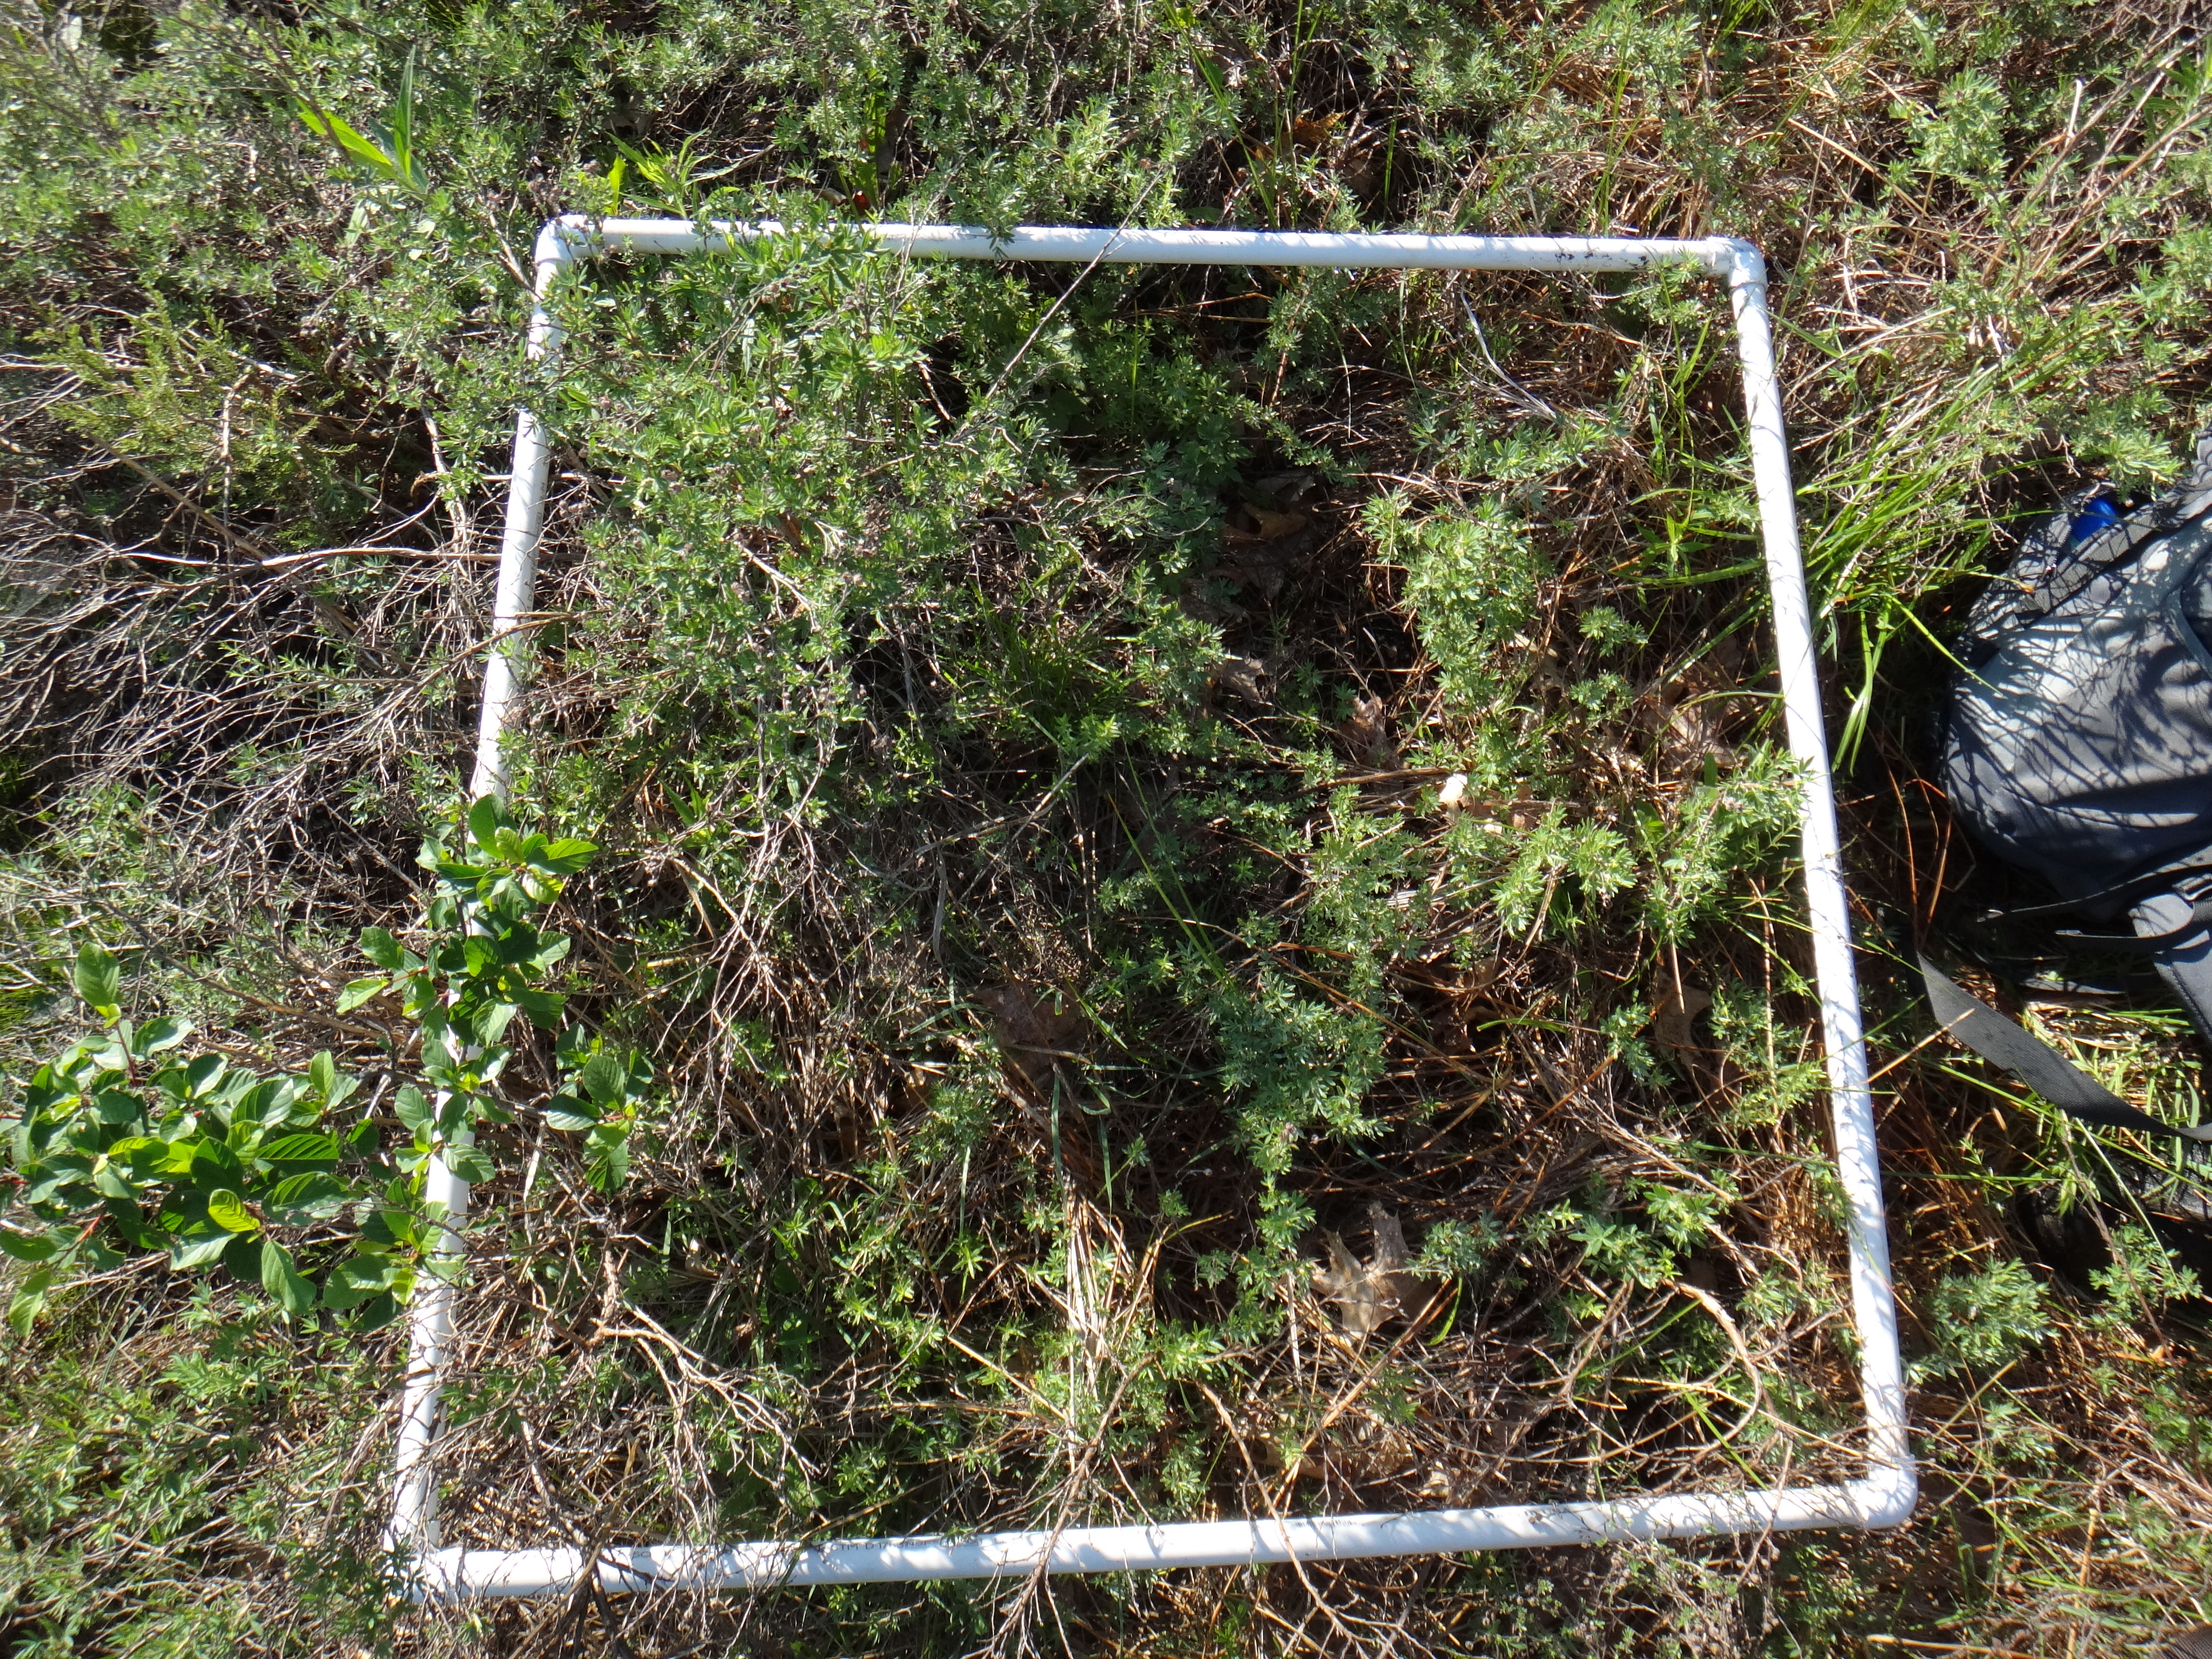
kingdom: Plantae
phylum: Tracheophyta
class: Magnoliopsida
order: Gentianales
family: Rubiaceae
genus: Galium
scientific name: Galium boreale
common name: Northern bedstraw
